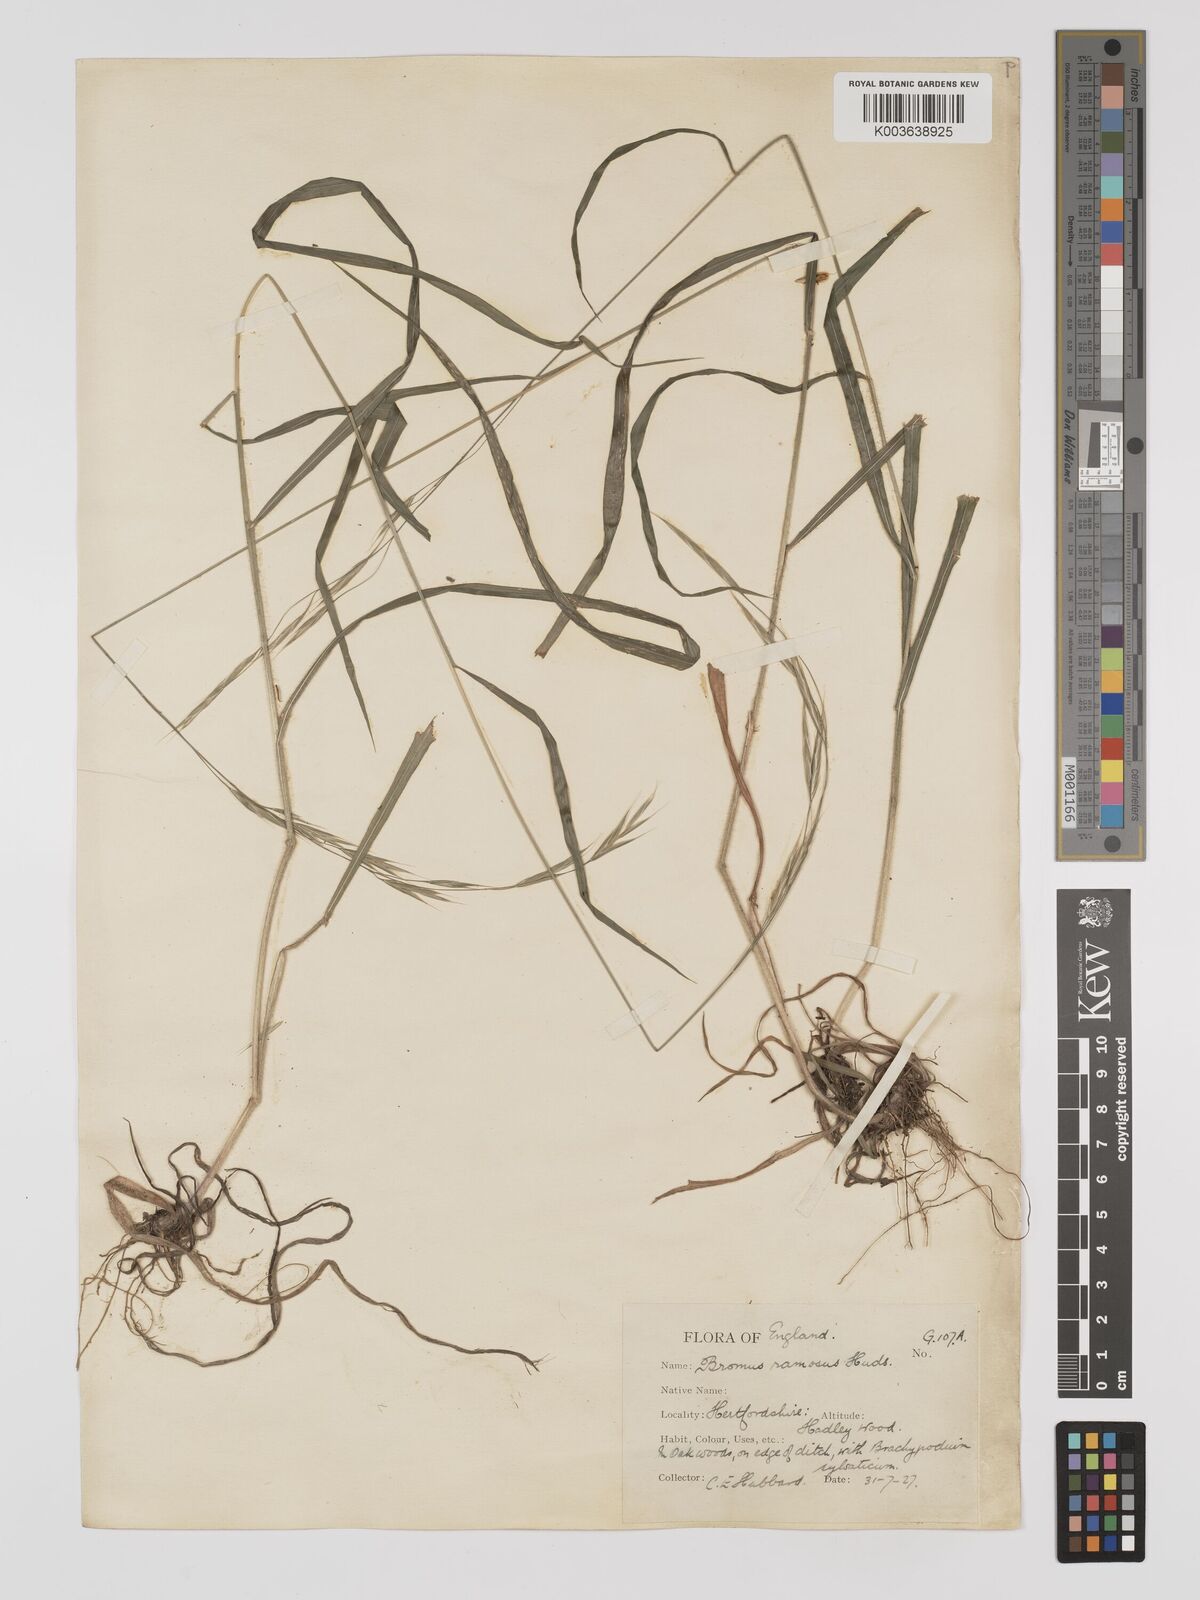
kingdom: Plantae
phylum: Tracheophyta
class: Liliopsida
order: Poales
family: Poaceae
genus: Bromus
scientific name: Bromus ramosus
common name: Hairy brome
